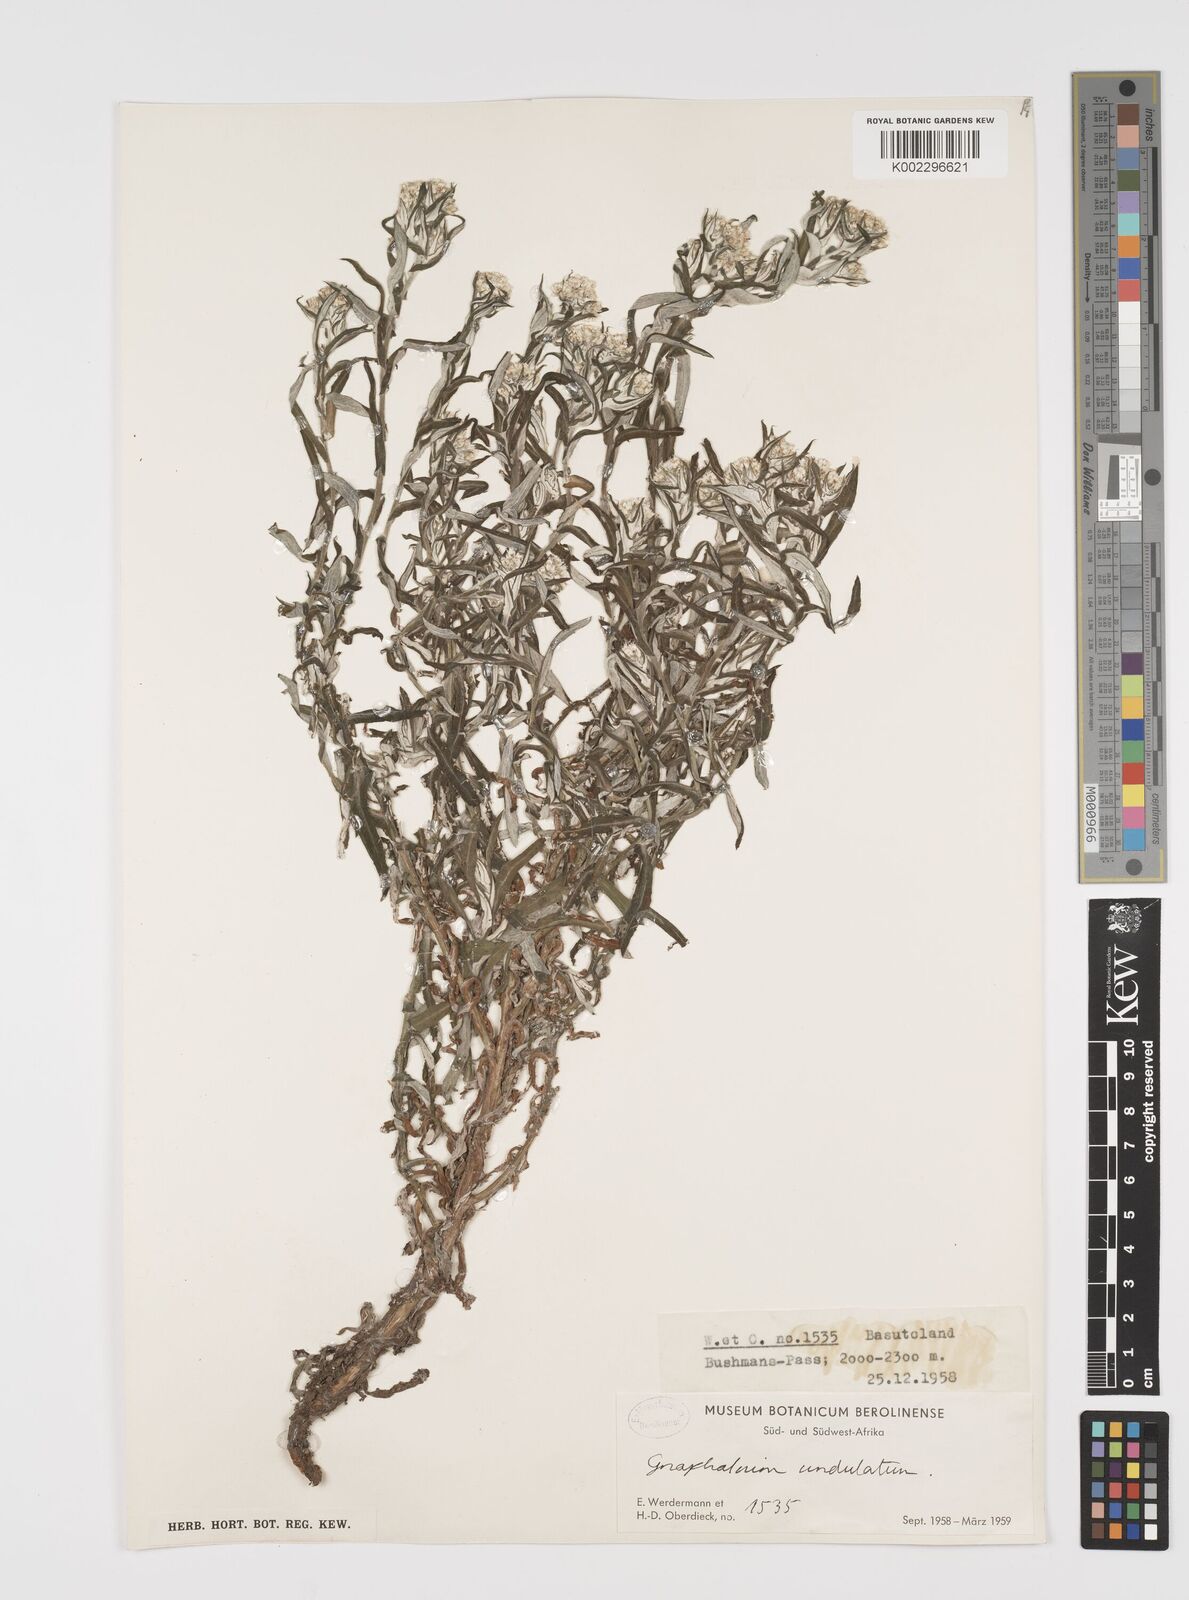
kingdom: Plantae
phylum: Tracheophyta
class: Magnoliopsida
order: Asterales
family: Asteraceae
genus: Pseudognaphalium
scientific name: Pseudognaphalium undulatum
